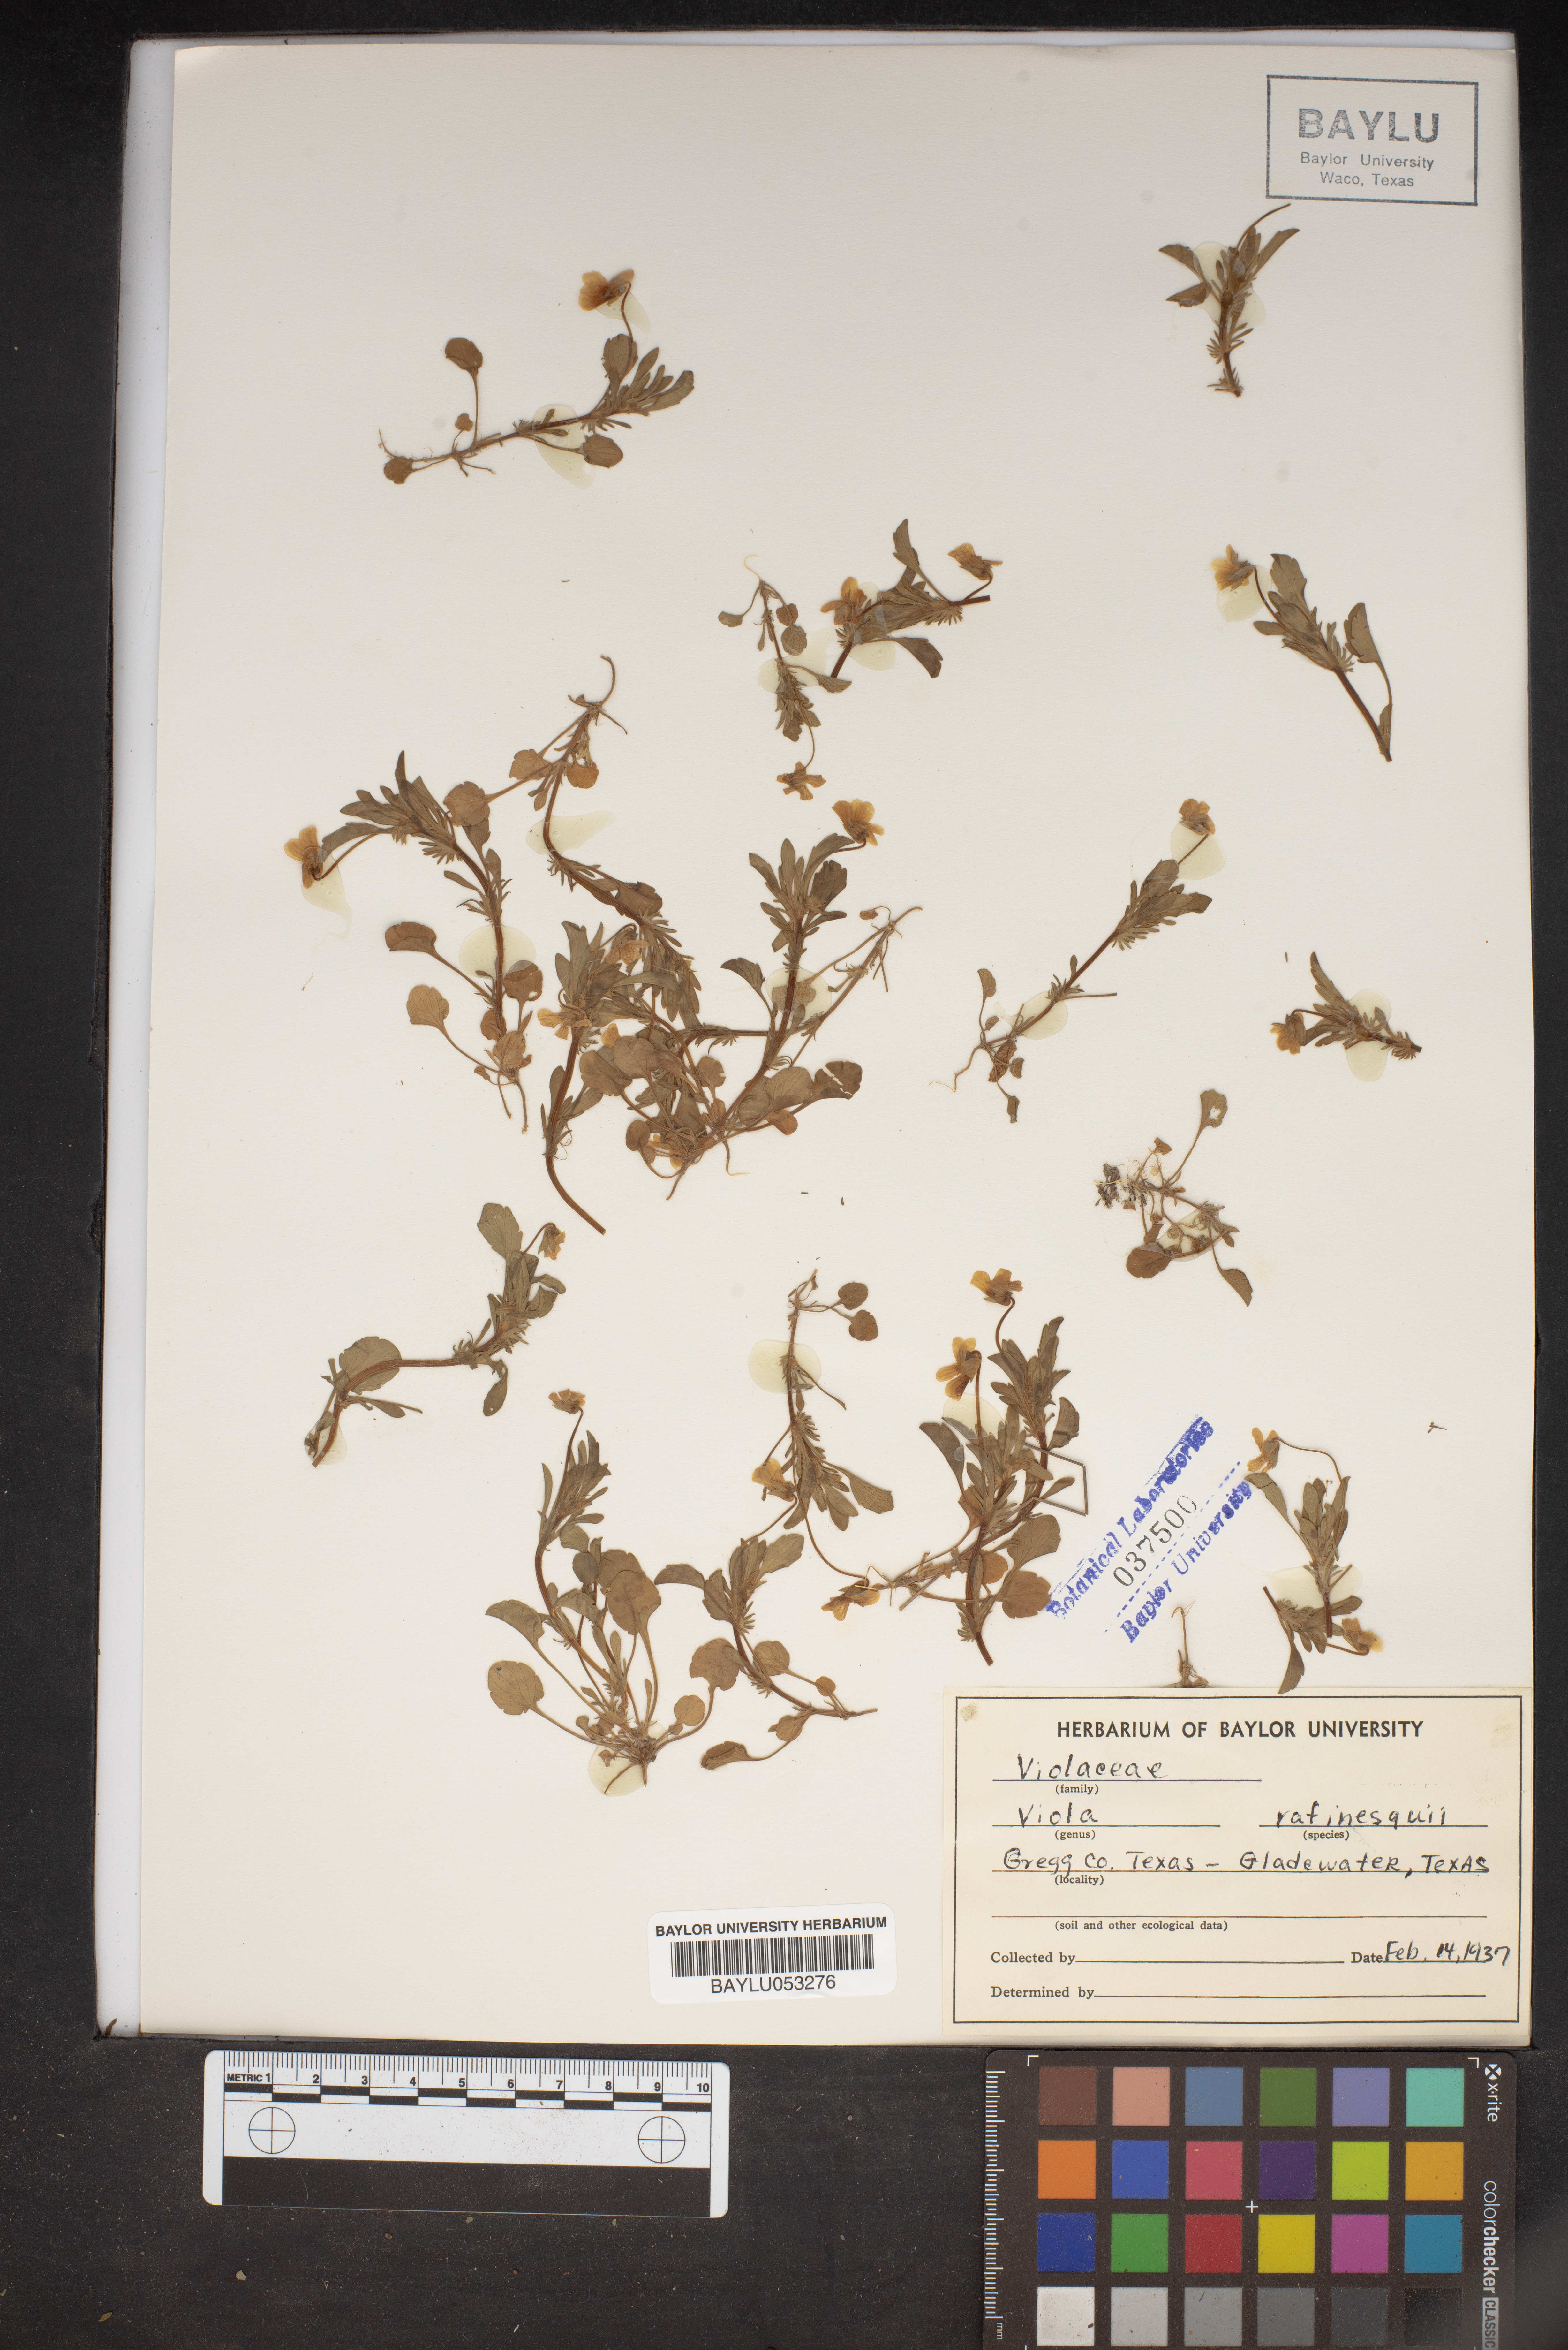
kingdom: Plantae
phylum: Tracheophyta
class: Magnoliopsida
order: Malpighiales
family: Violaceae
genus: Viola
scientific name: Viola rafinesquei
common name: American field pansy
